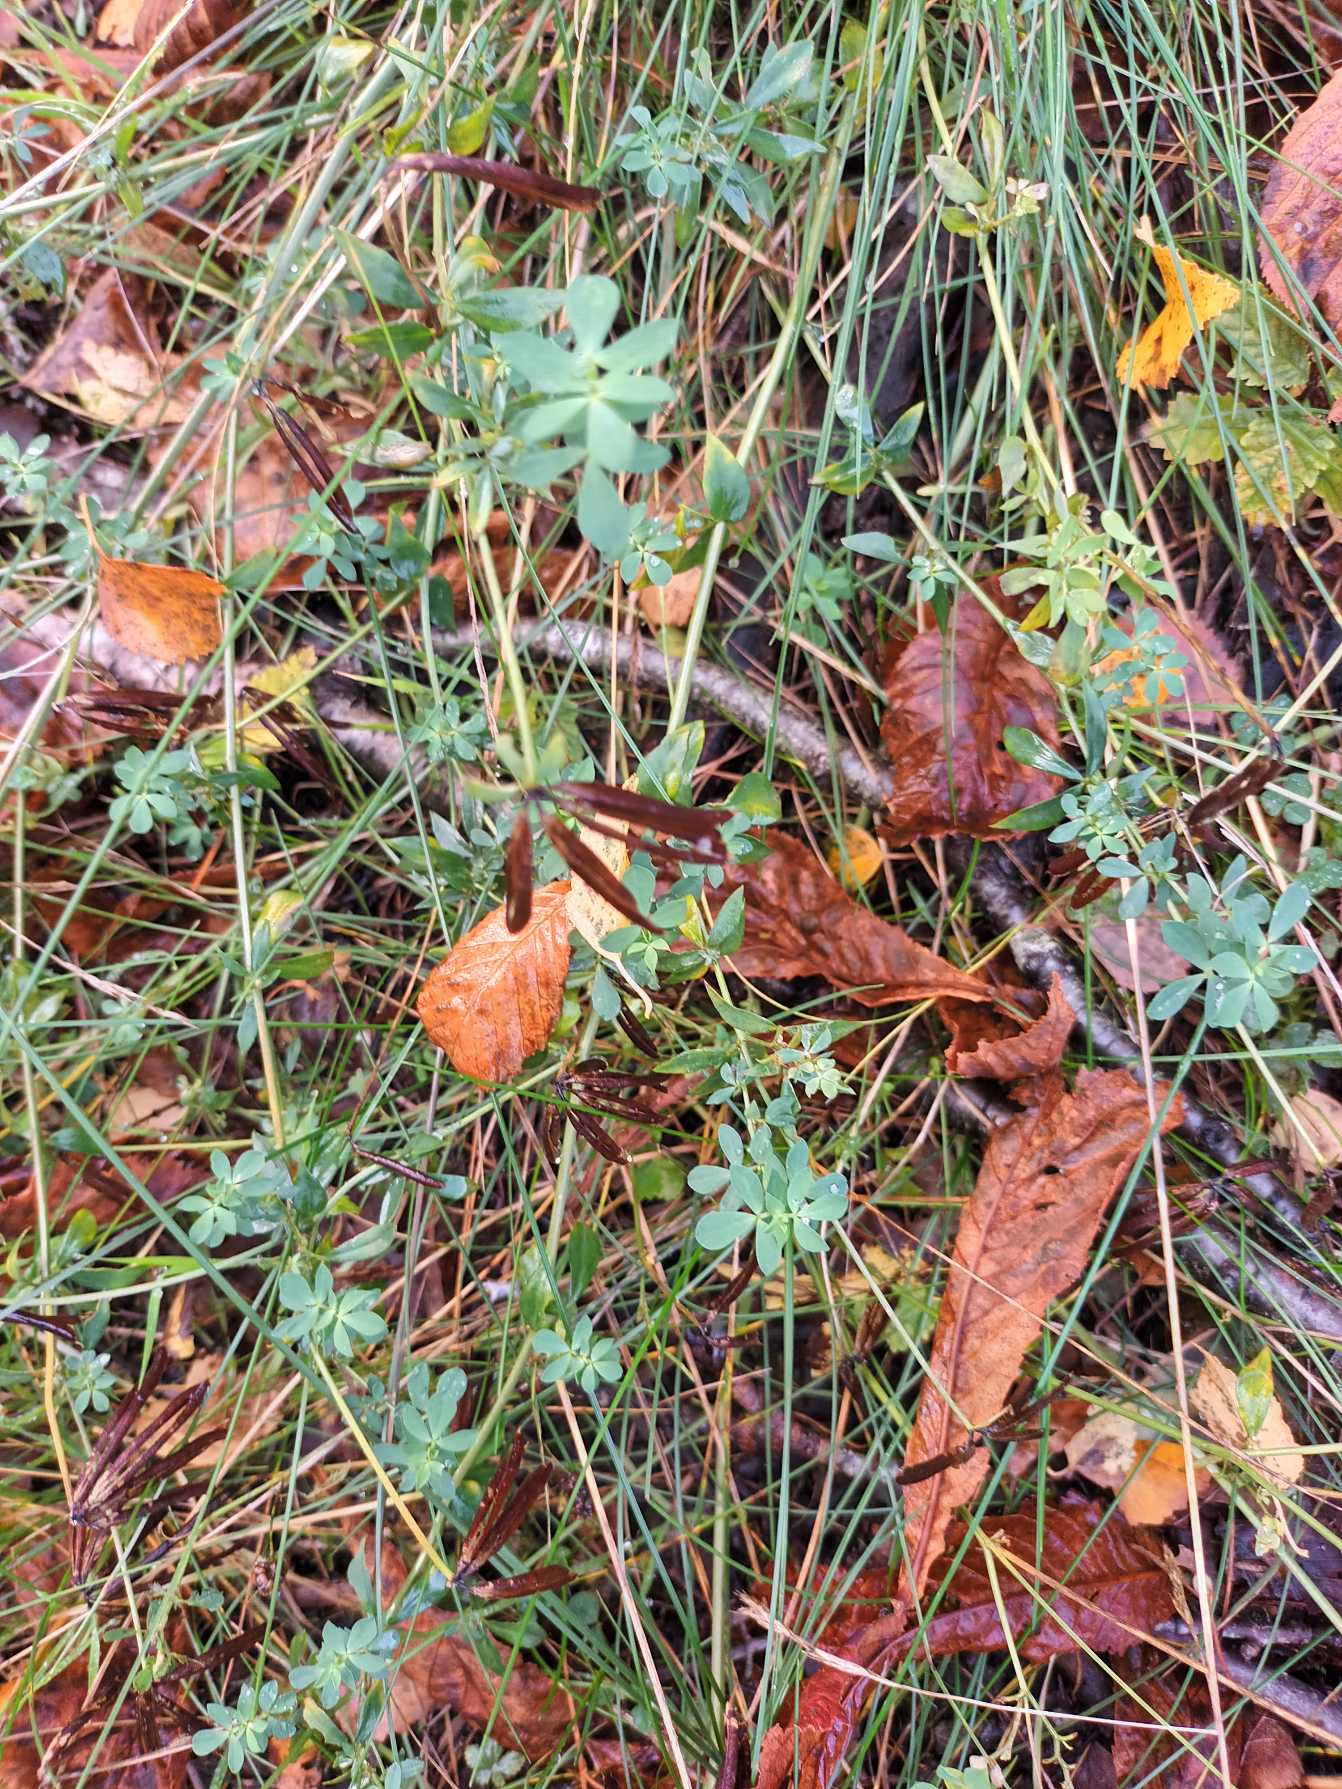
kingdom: Plantae
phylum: Tracheophyta
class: Magnoliopsida
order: Fabales
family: Fabaceae
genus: Lotus
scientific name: Lotus corniculatus
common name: Almindelig kællingetand
